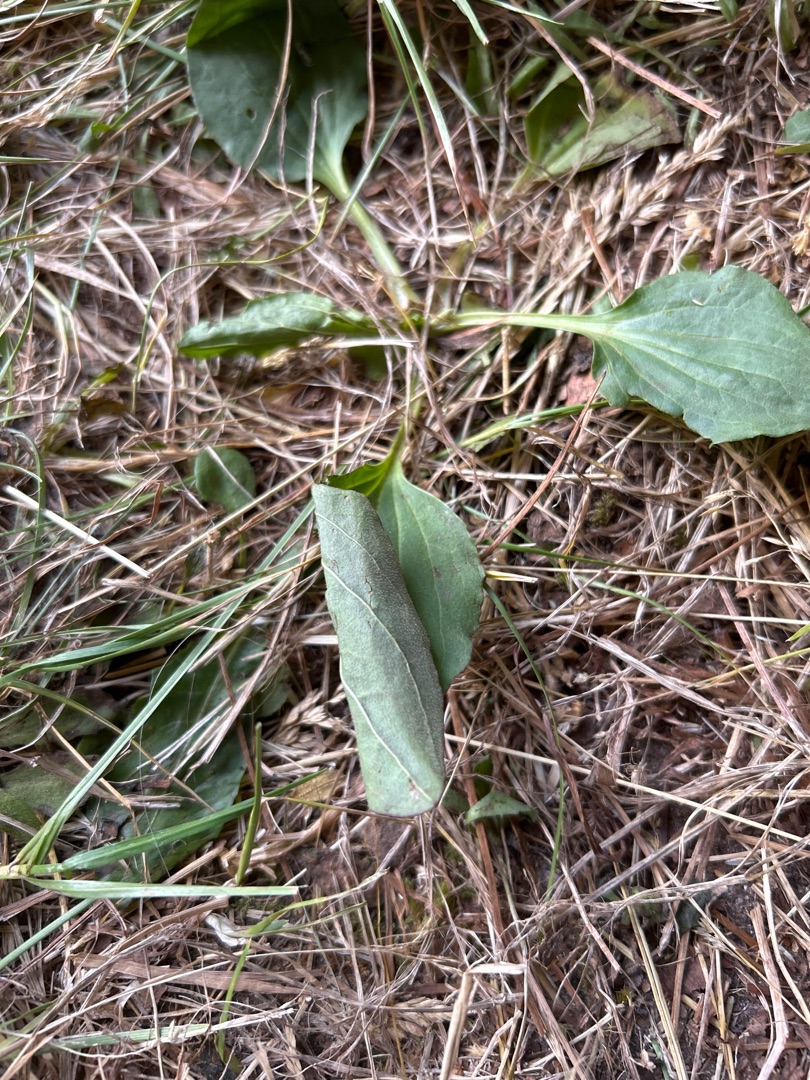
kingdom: Plantae
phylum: Tracheophyta
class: Magnoliopsida
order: Lamiales
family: Plantaginaceae
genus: Plantago
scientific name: Plantago major
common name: Glat vejbred
